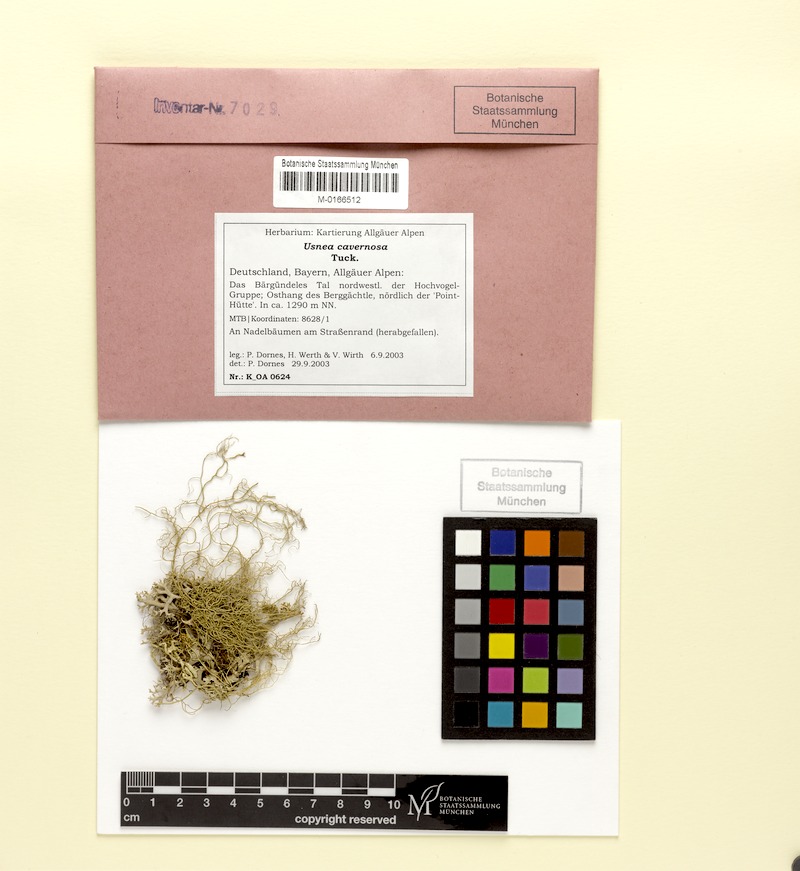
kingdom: Fungi
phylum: Ascomycota
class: Lecanoromycetes
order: Lecanorales
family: Parmeliaceae
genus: Usnea
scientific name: Usnea cavernosa
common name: Pitted beard lichen
